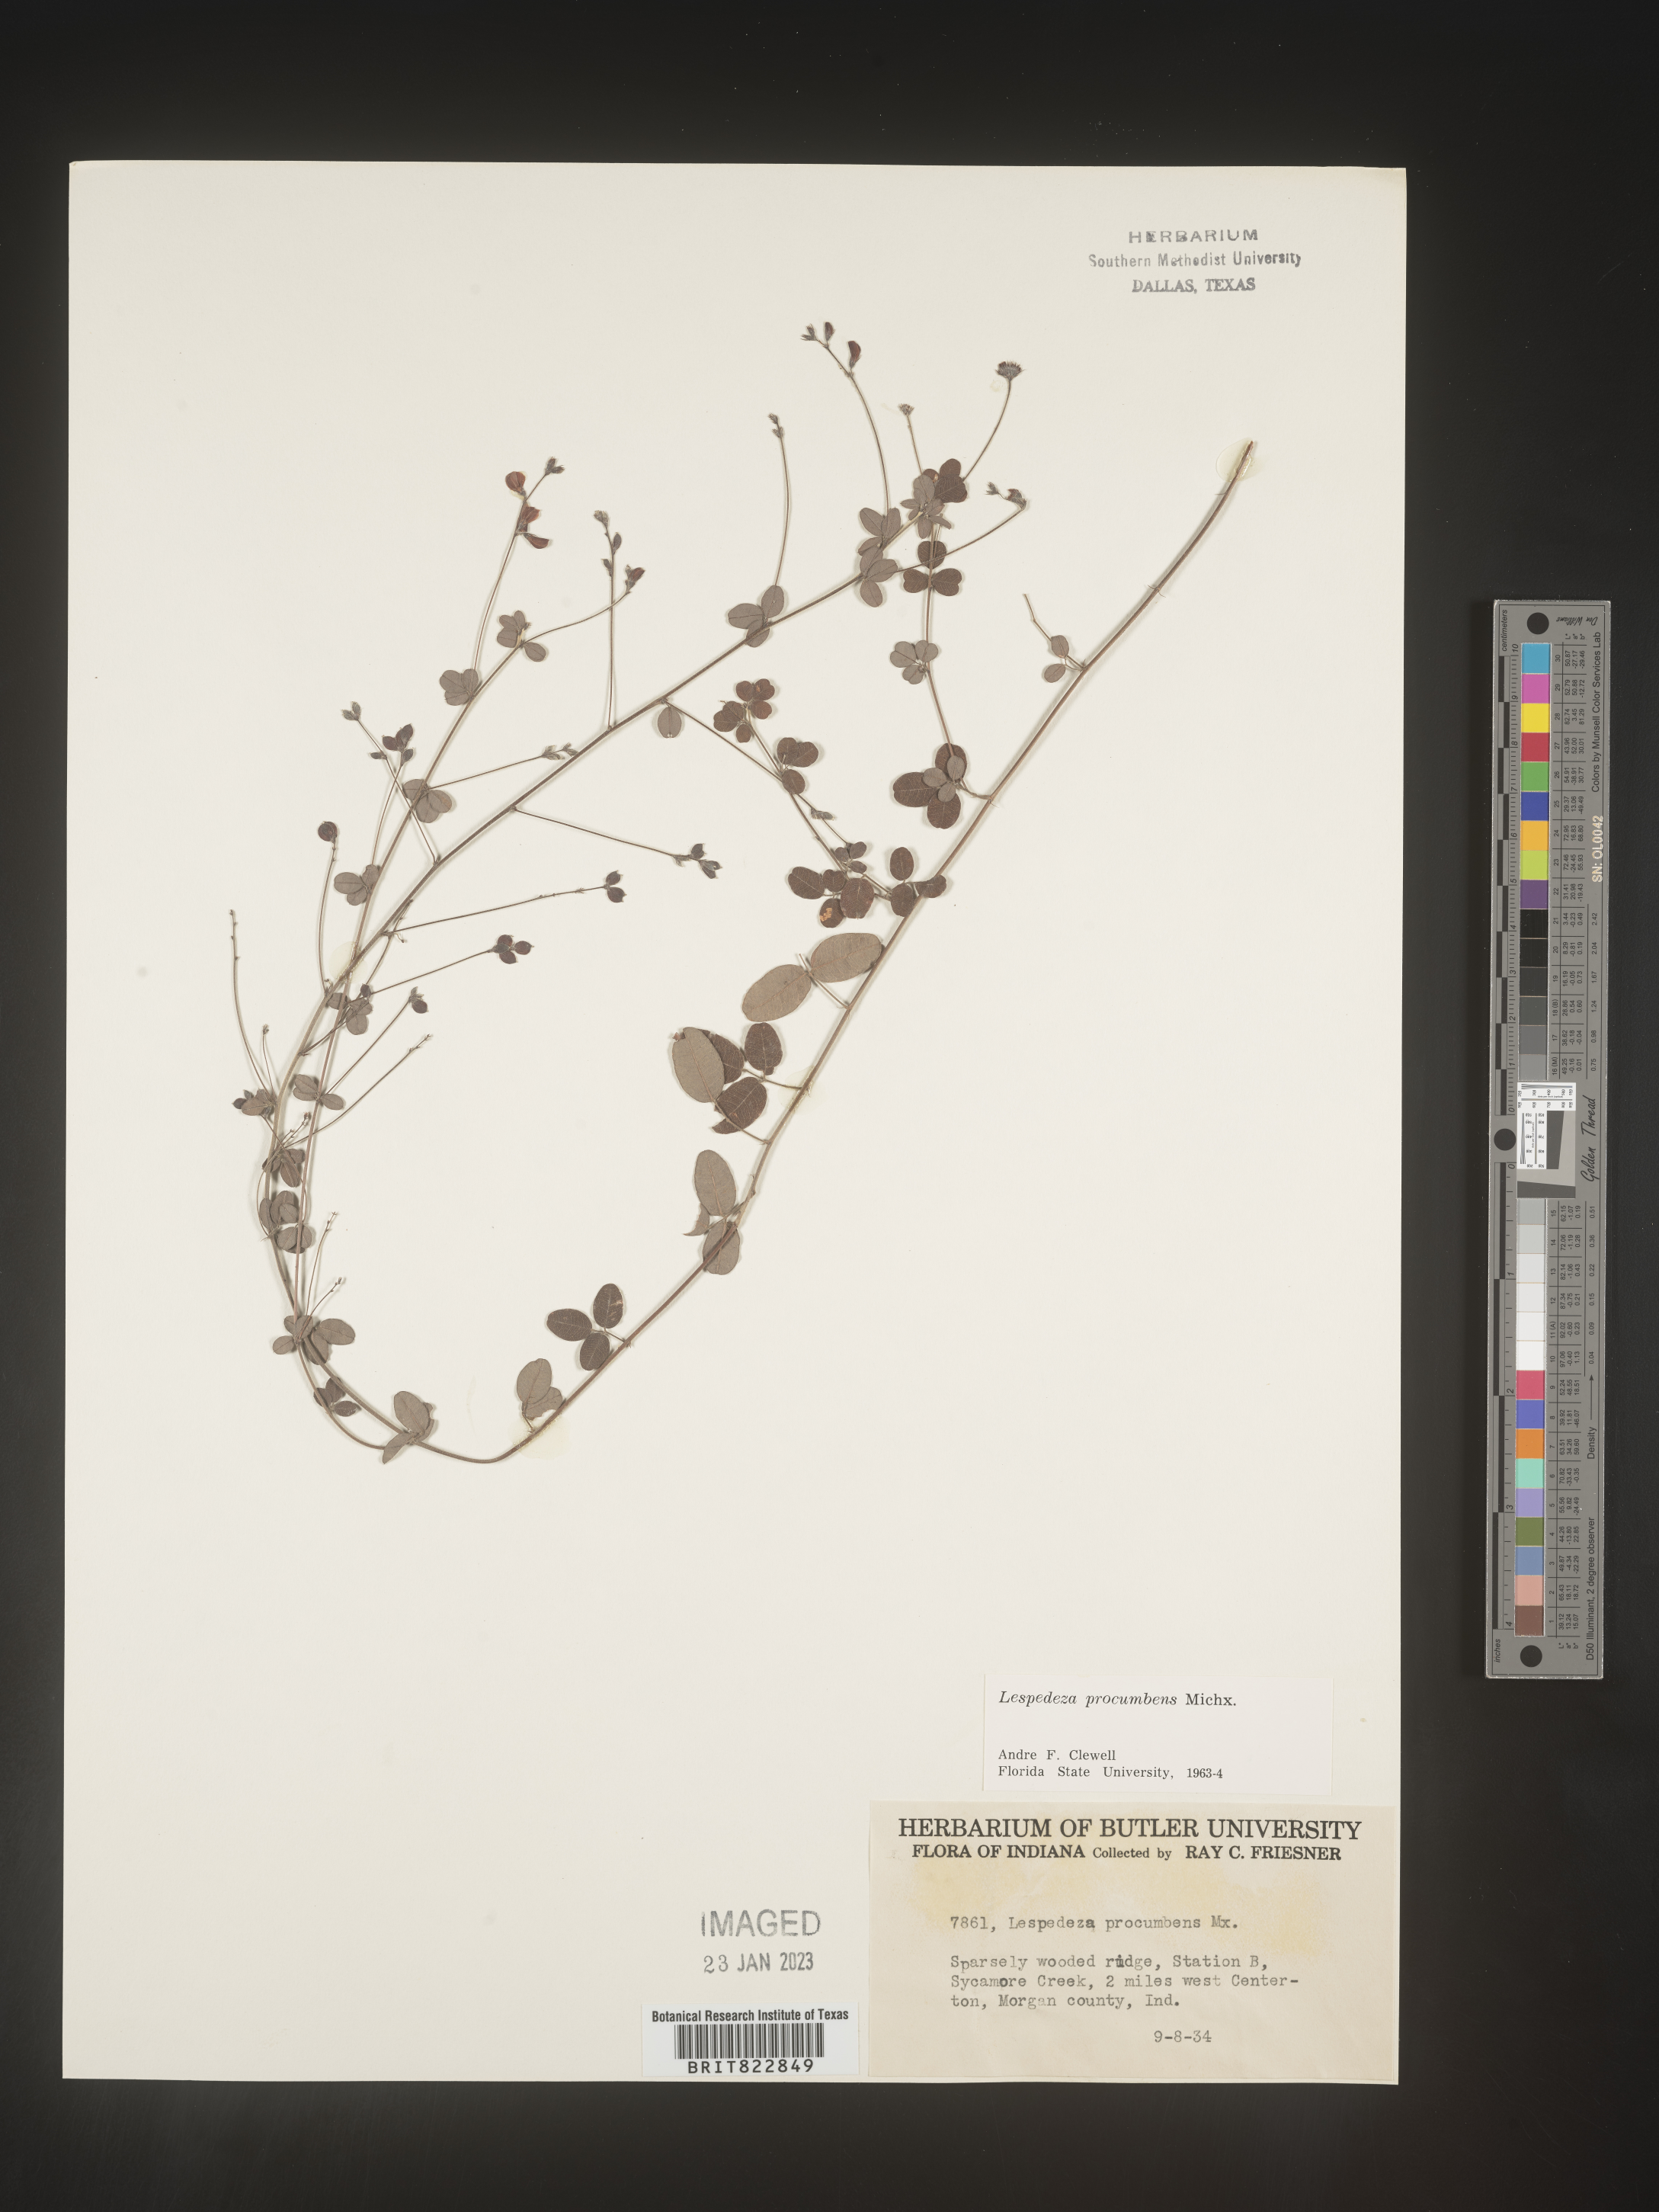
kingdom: Plantae
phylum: Tracheophyta
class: Magnoliopsida
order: Fabales
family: Fabaceae
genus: Lespedeza
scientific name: Lespedeza procumbens
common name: Downy trailing bush-clover
